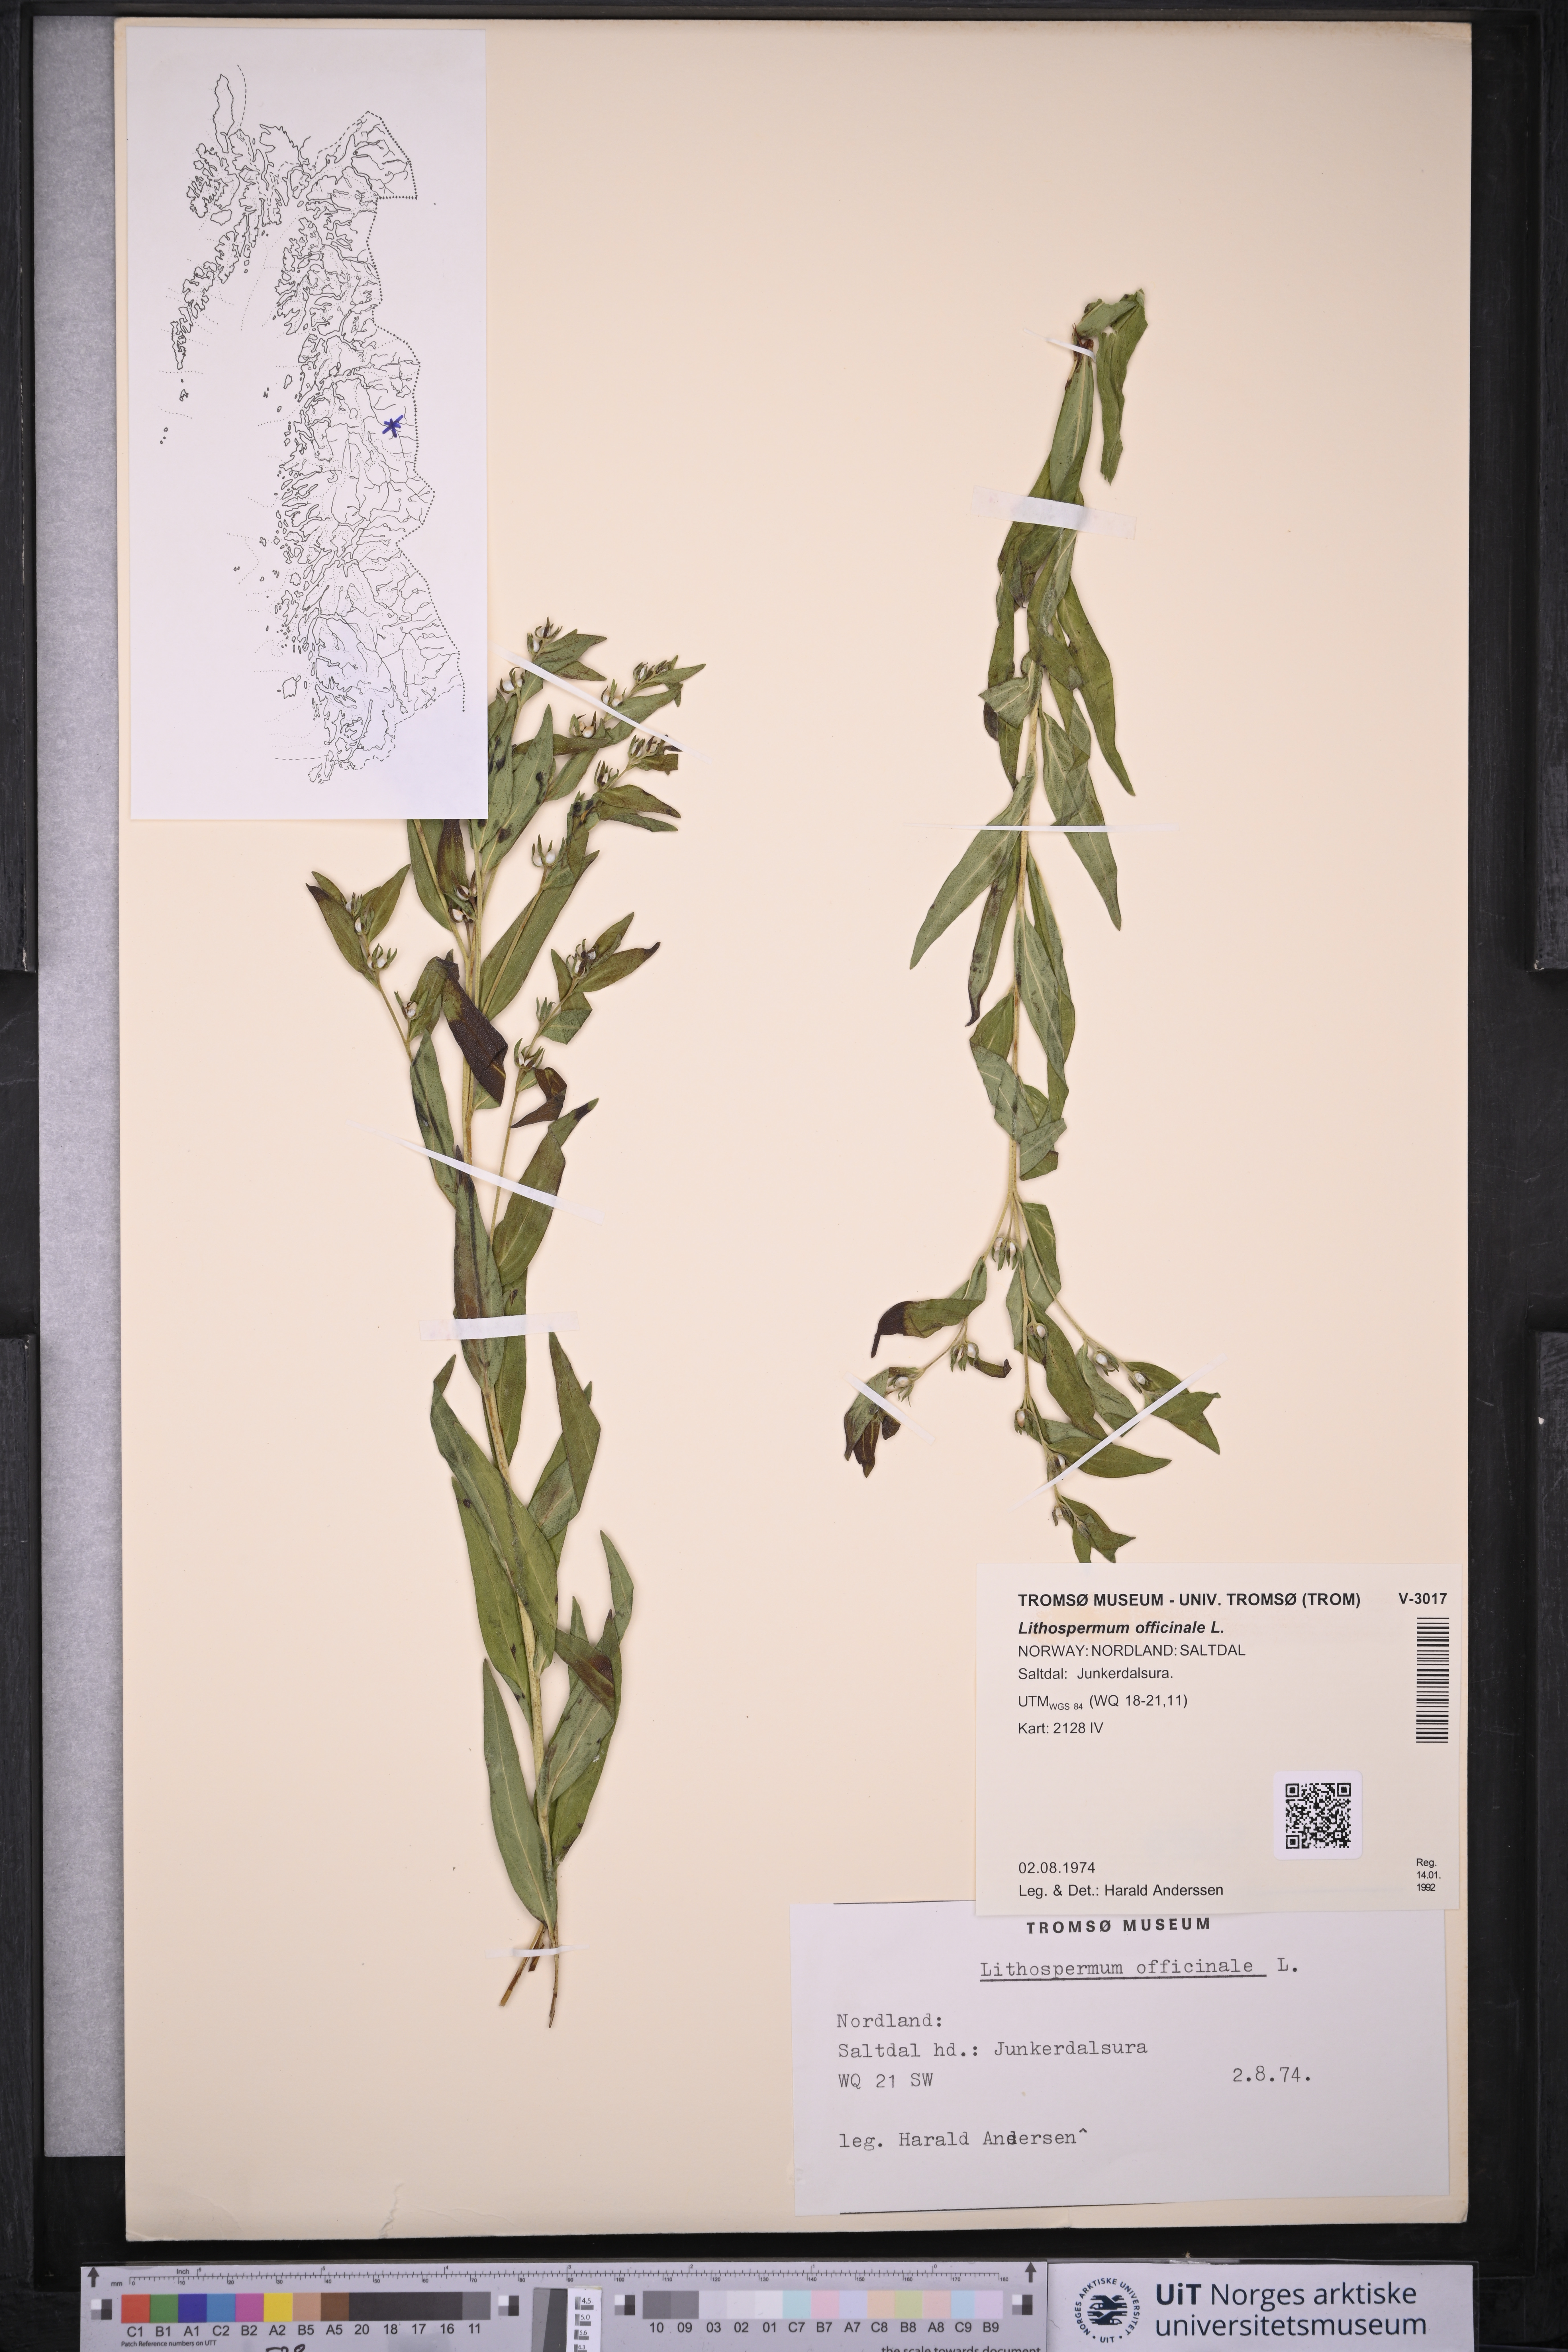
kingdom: Plantae
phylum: Tracheophyta
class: Magnoliopsida
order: Boraginales
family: Boraginaceae
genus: Lithospermum
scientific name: Lithospermum officinale
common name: Common gromwell
